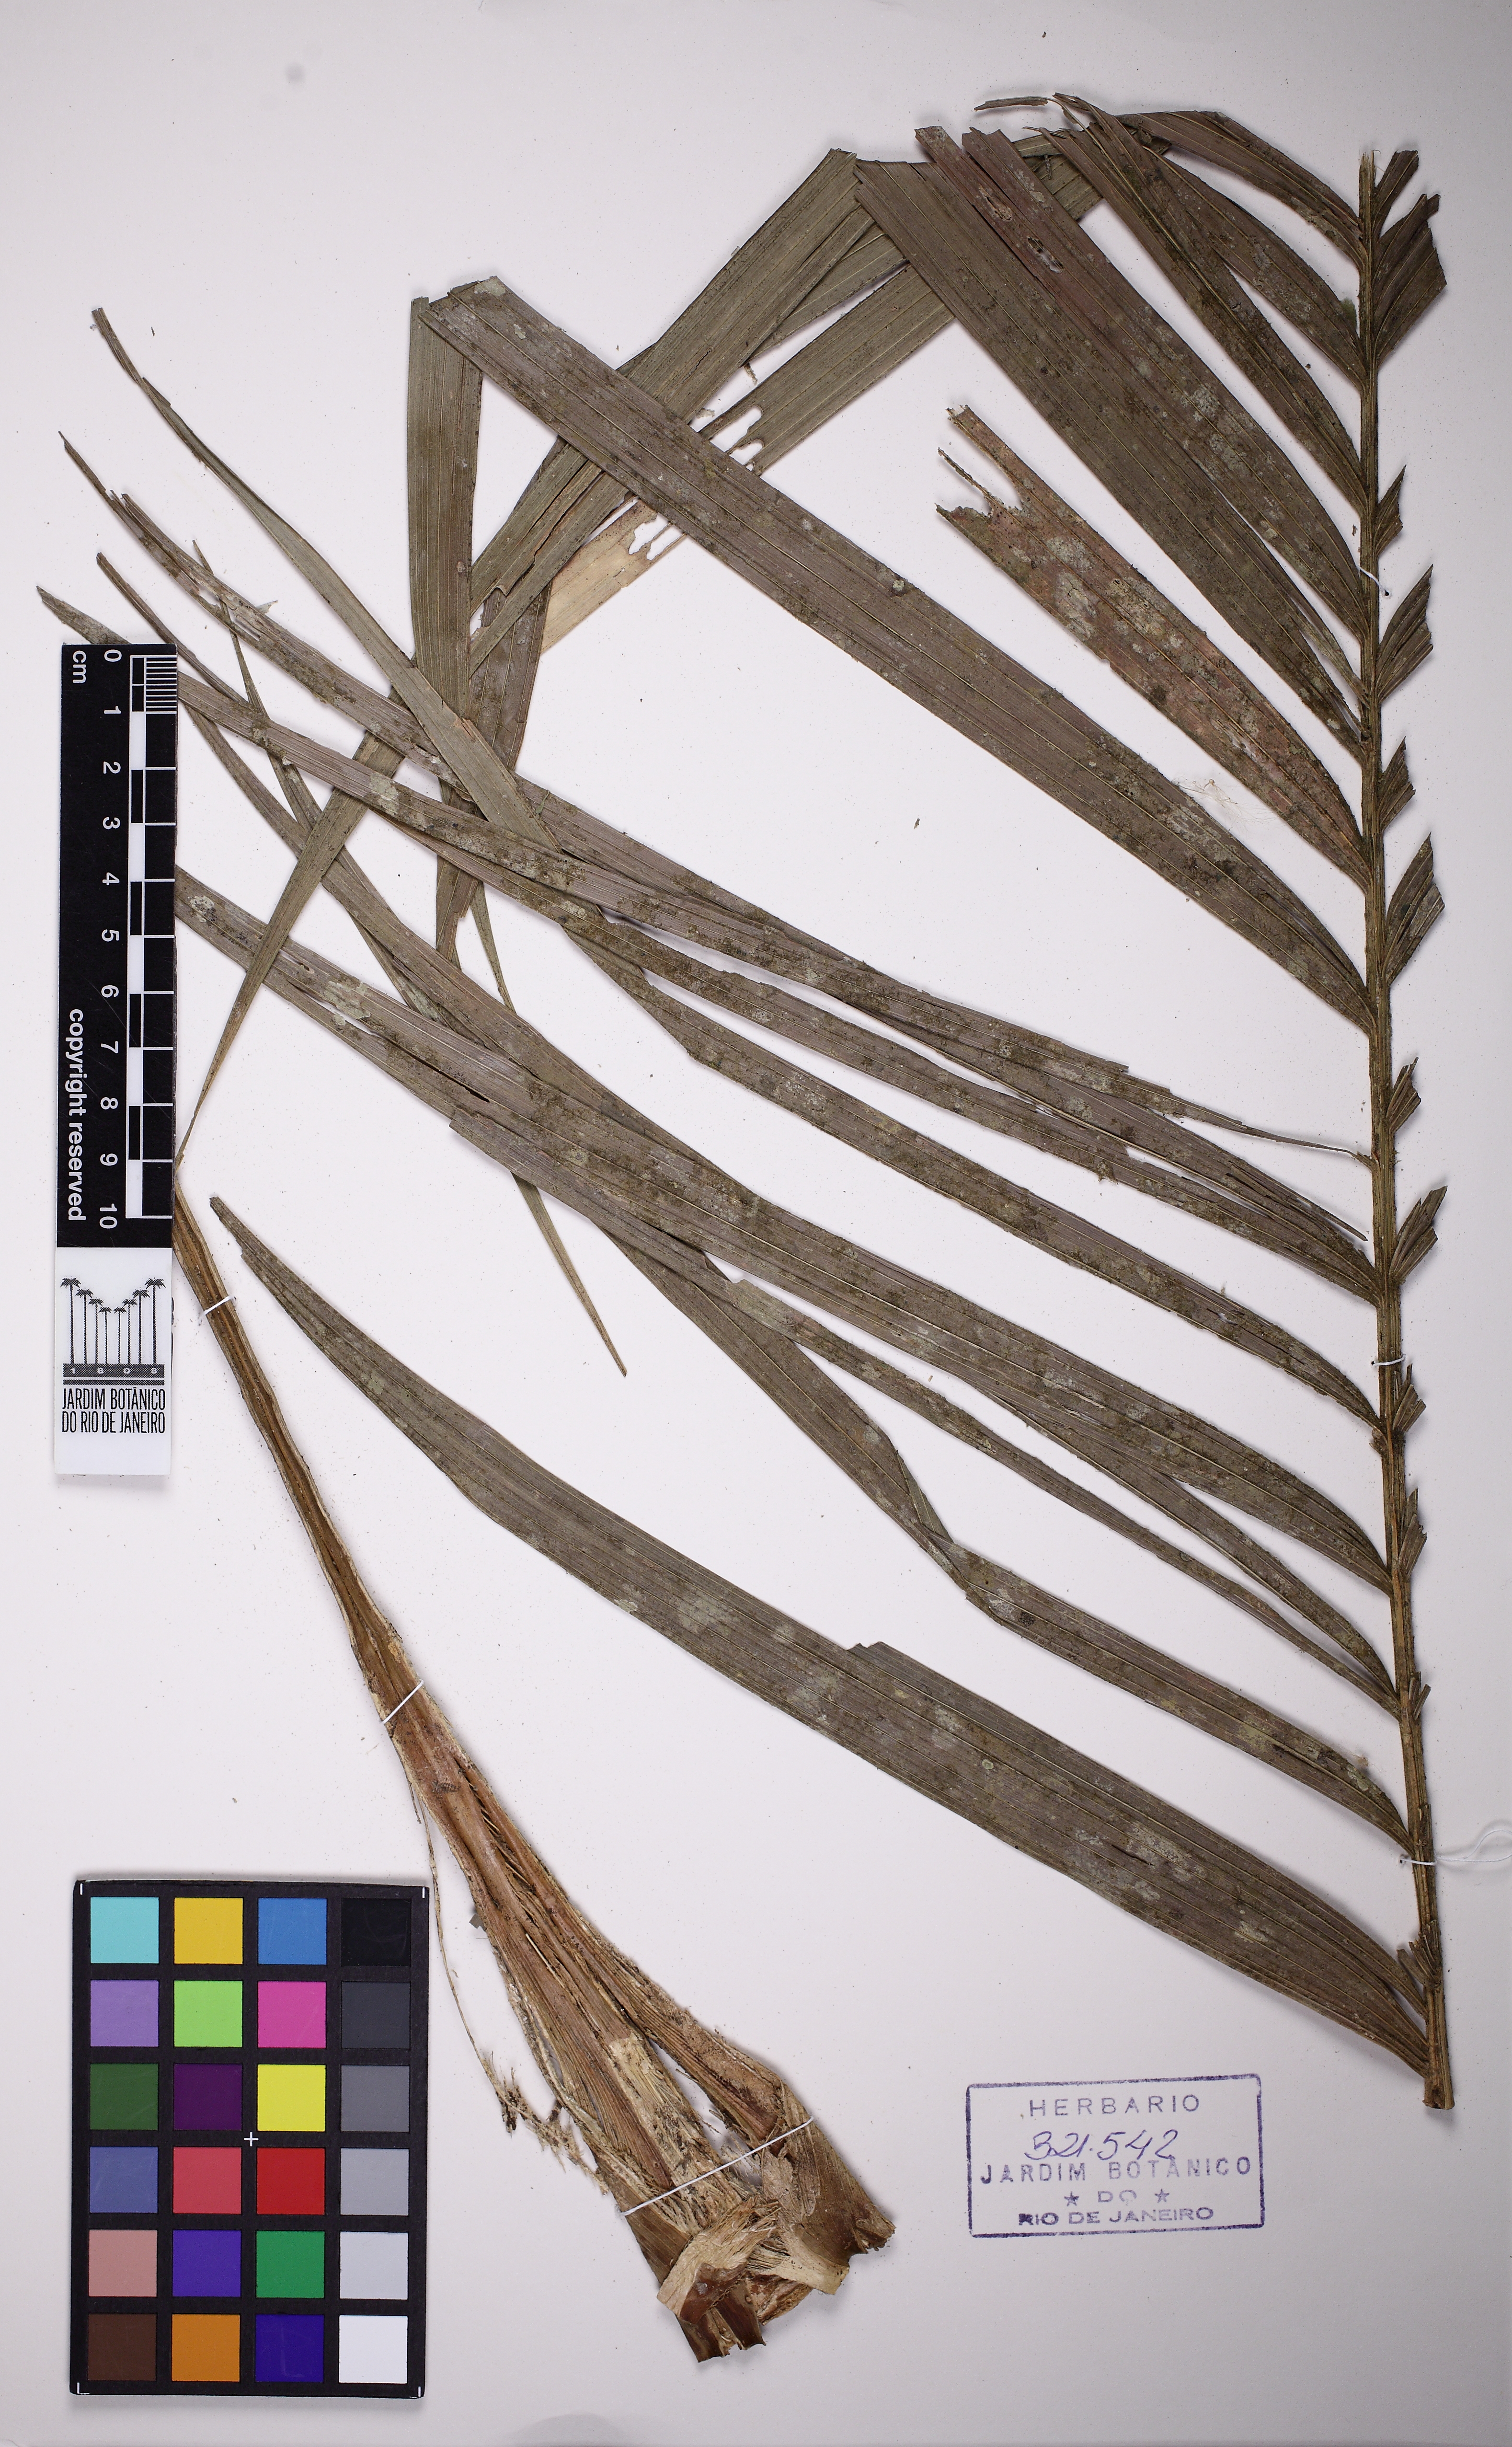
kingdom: Plantae
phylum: Tracheophyta
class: Liliopsida
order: Arecales
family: Arecaceae
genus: Geonoma
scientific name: Geonoma pohliana
